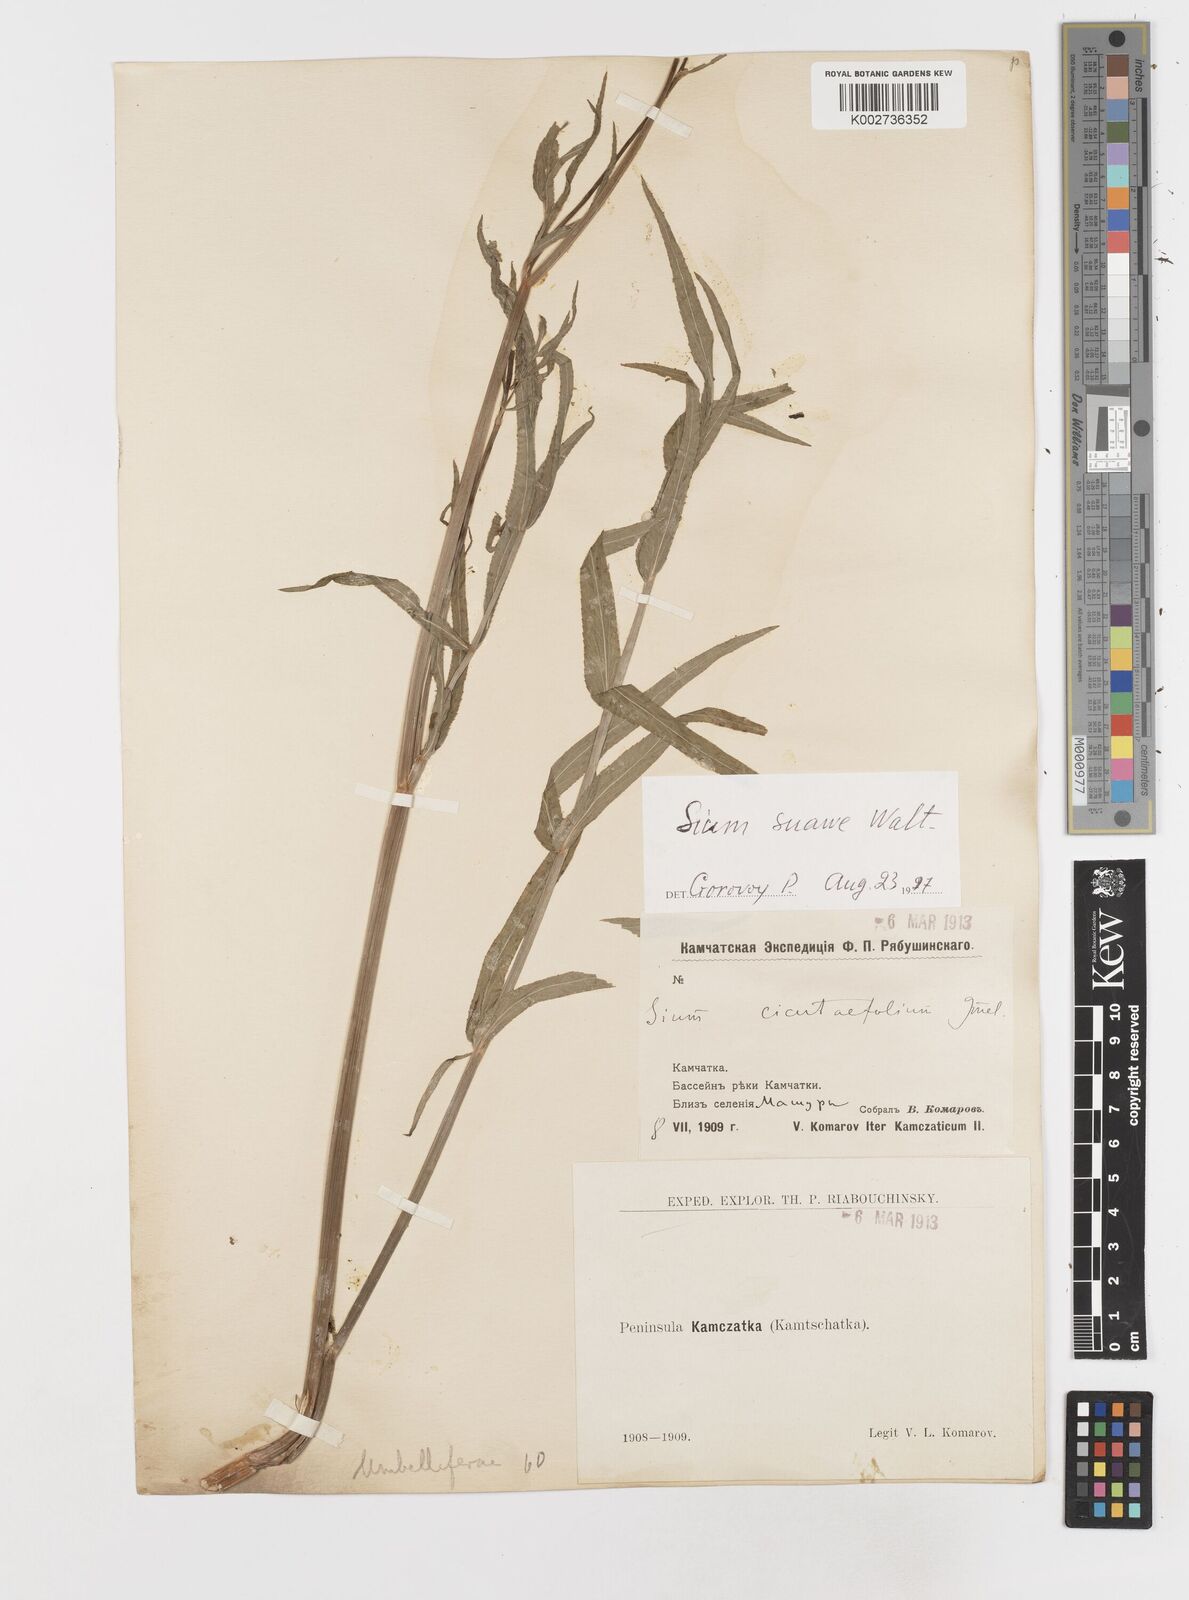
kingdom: Plantae
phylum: Tracheophyta
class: Magnoliopsida
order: Apiales
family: Apiaceae
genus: Sium
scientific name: Sium suave
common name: Hemlock water-parsnip
